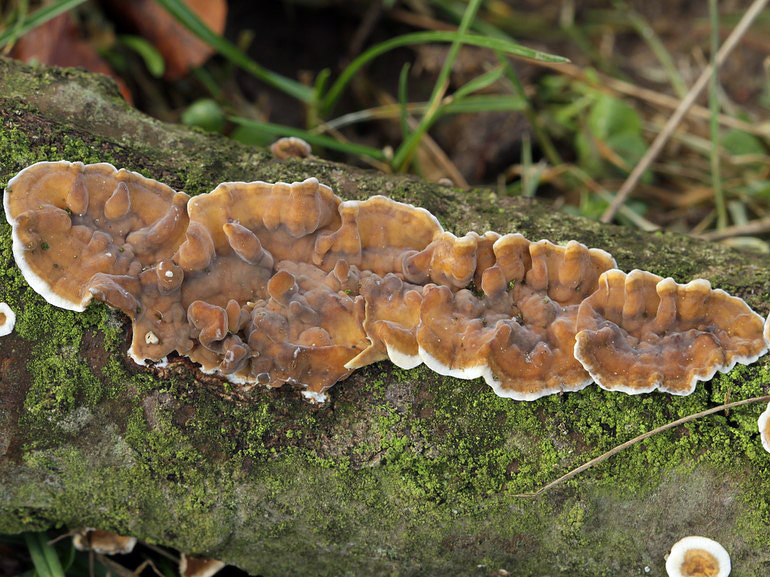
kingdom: Fungi
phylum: Basidiomycota
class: Agaricomycetes
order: Russulales
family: Stereaceae
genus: Stereum
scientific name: Stereum hirsutum
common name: håret lædersvamp
